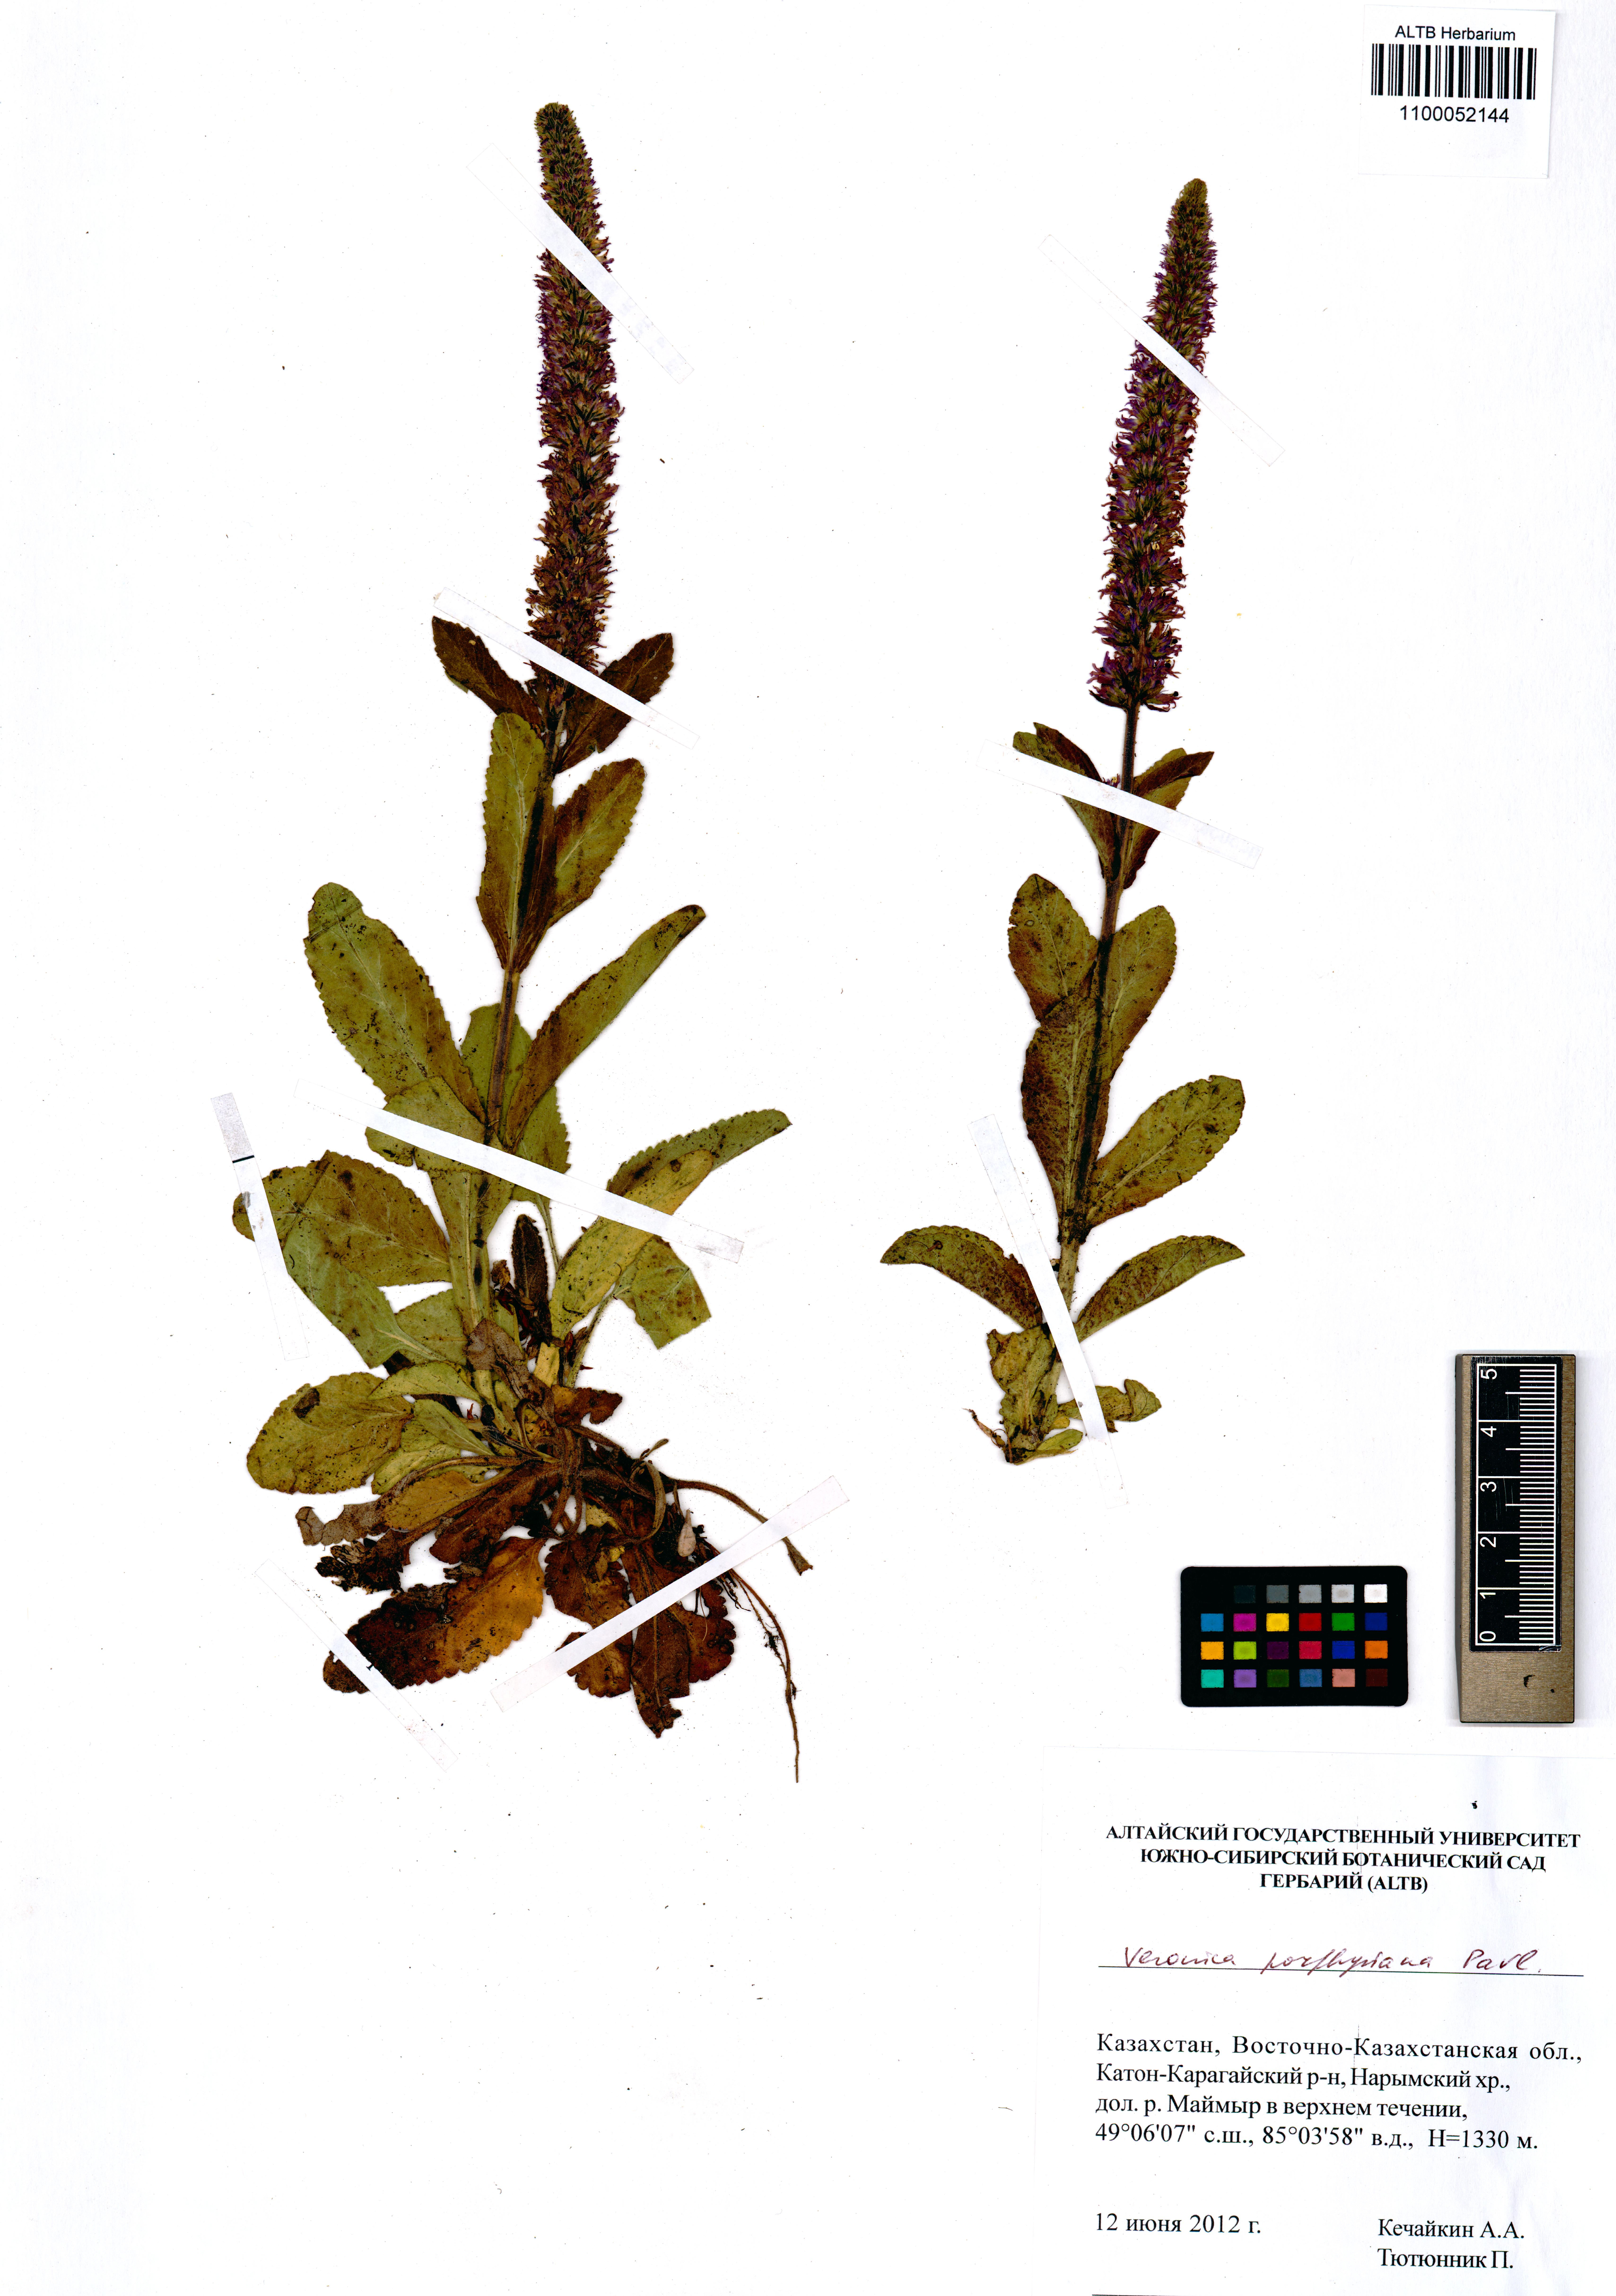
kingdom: Plantae
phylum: Tracheophyta
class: Magnoliopsida
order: Lamiales
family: Plantaginaceae
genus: Veronica
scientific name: Veronica porphyriana
